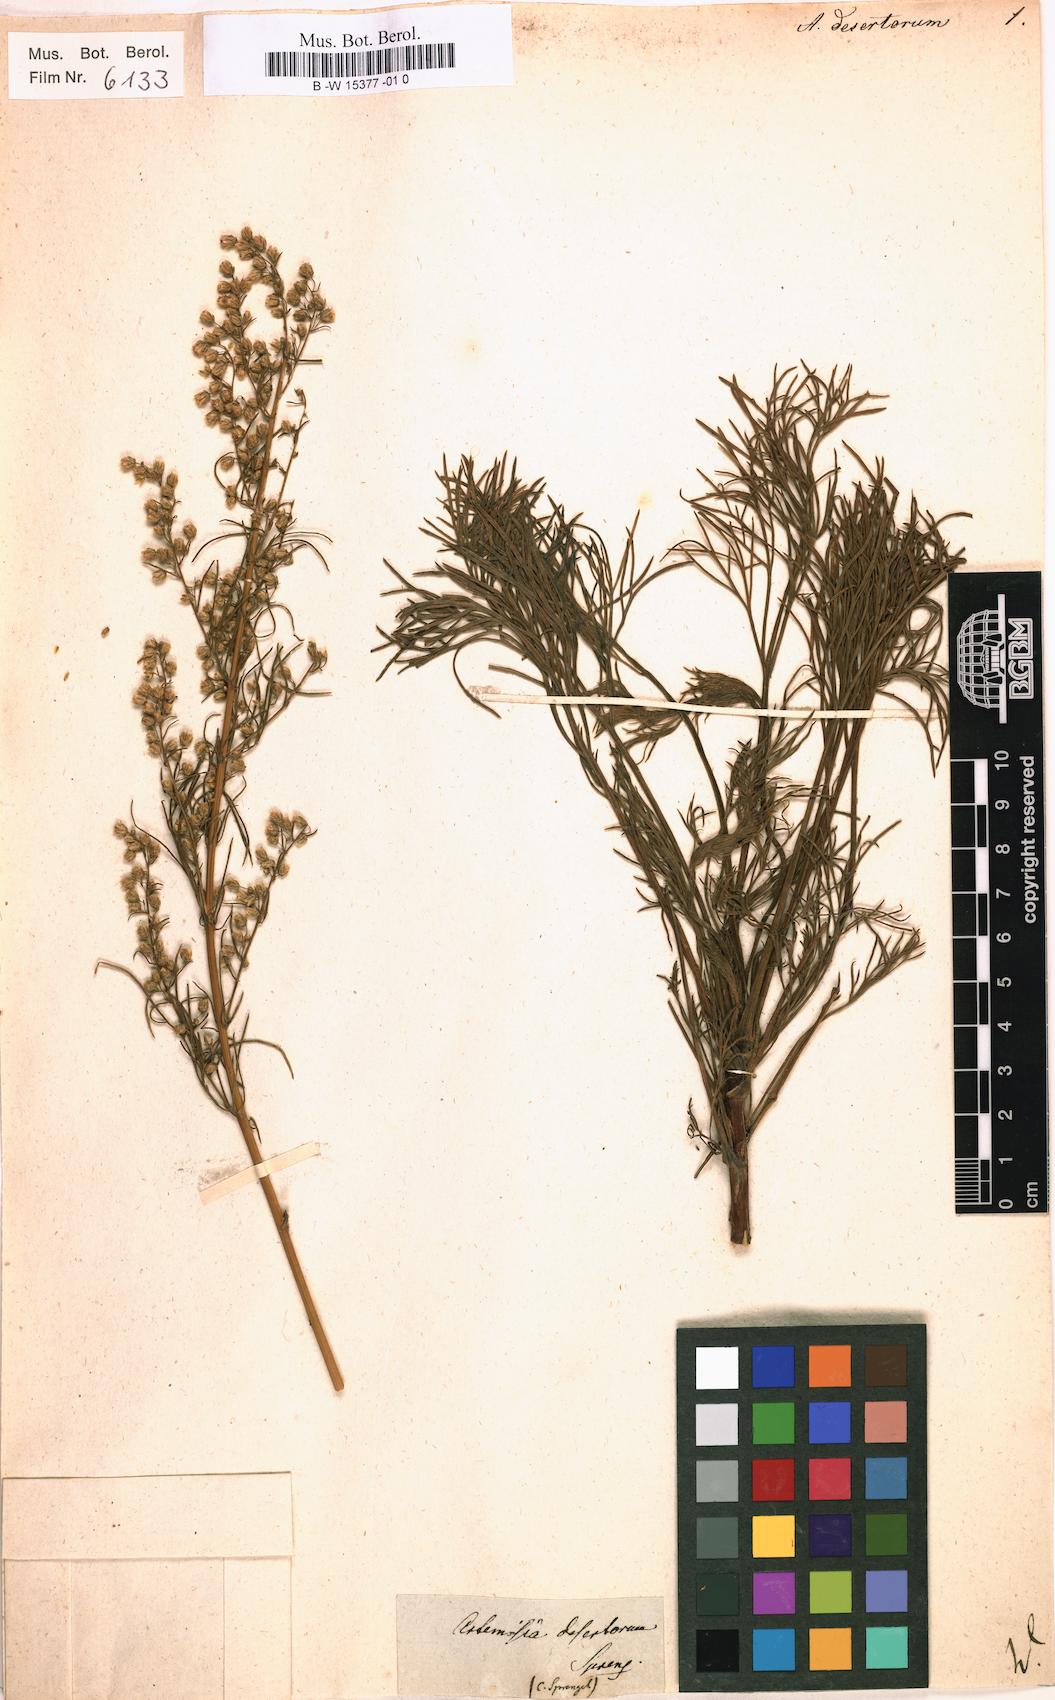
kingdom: Plantae
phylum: Tracheophyta
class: Magnoliopsida
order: Asterales
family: Asteraceae
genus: Artemisia
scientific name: Artemisia
